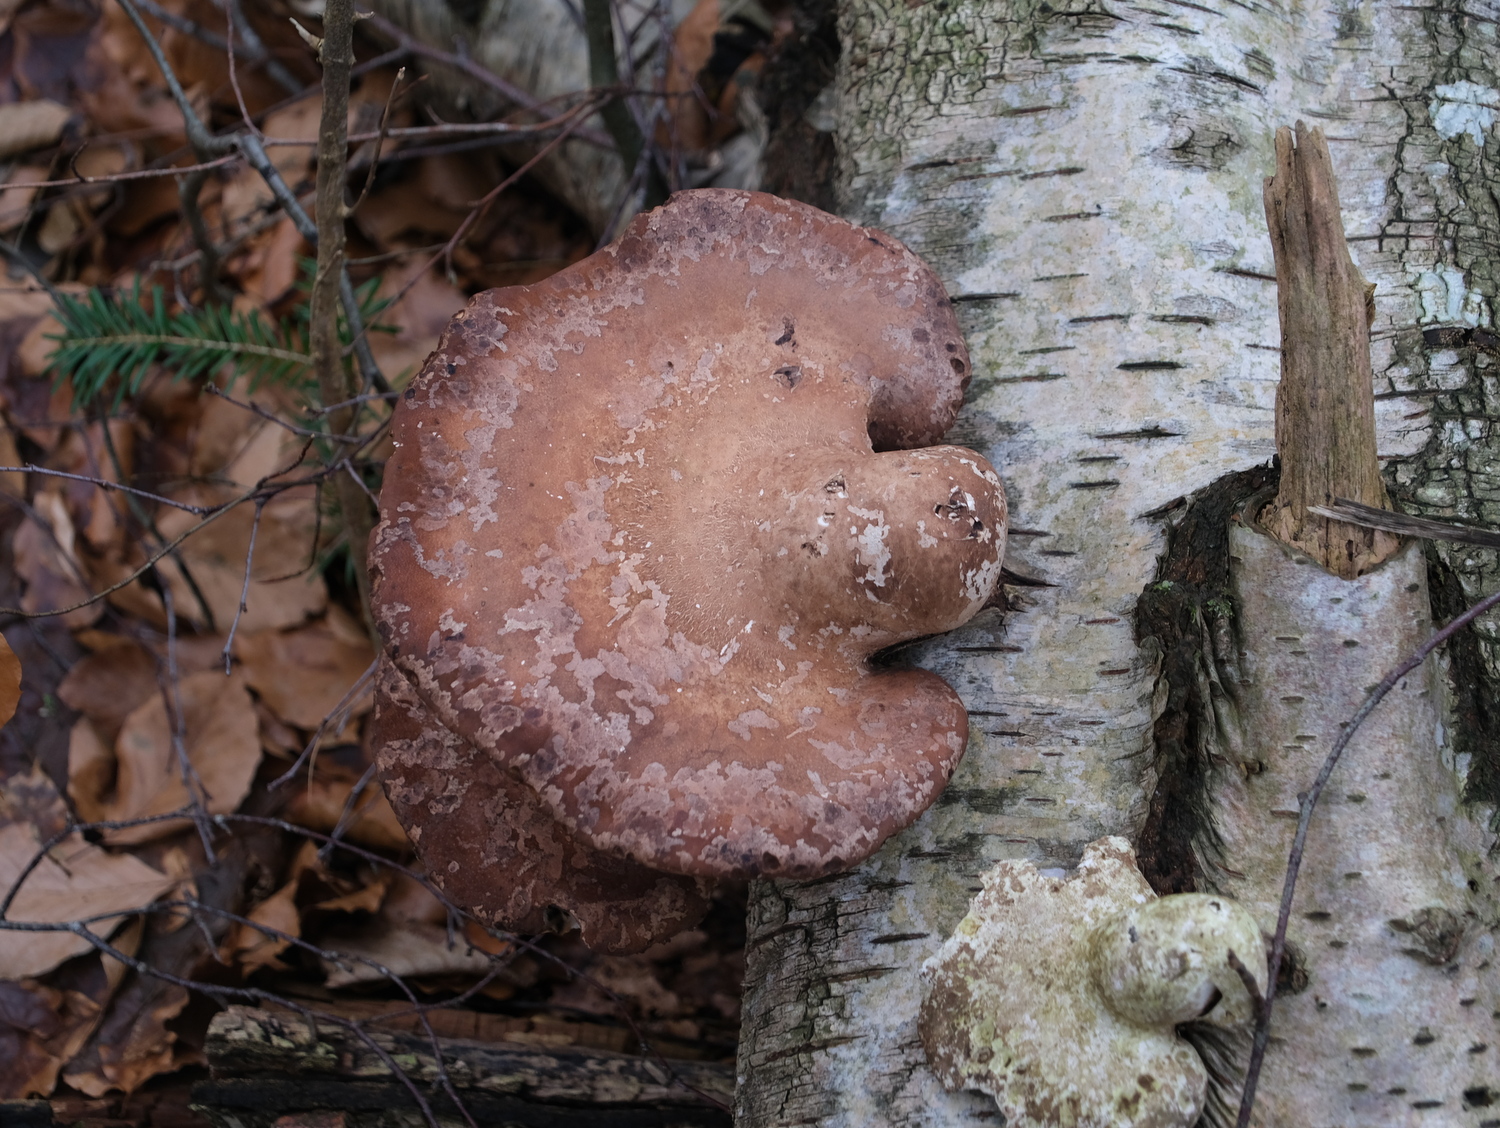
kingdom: Fungi
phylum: Basidiomycota
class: Agaricomycetes
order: Polyporales
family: Fomitopsidaceae
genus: Fomitopsis
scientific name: Fomitopsis betulina
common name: birkeporesvamp
